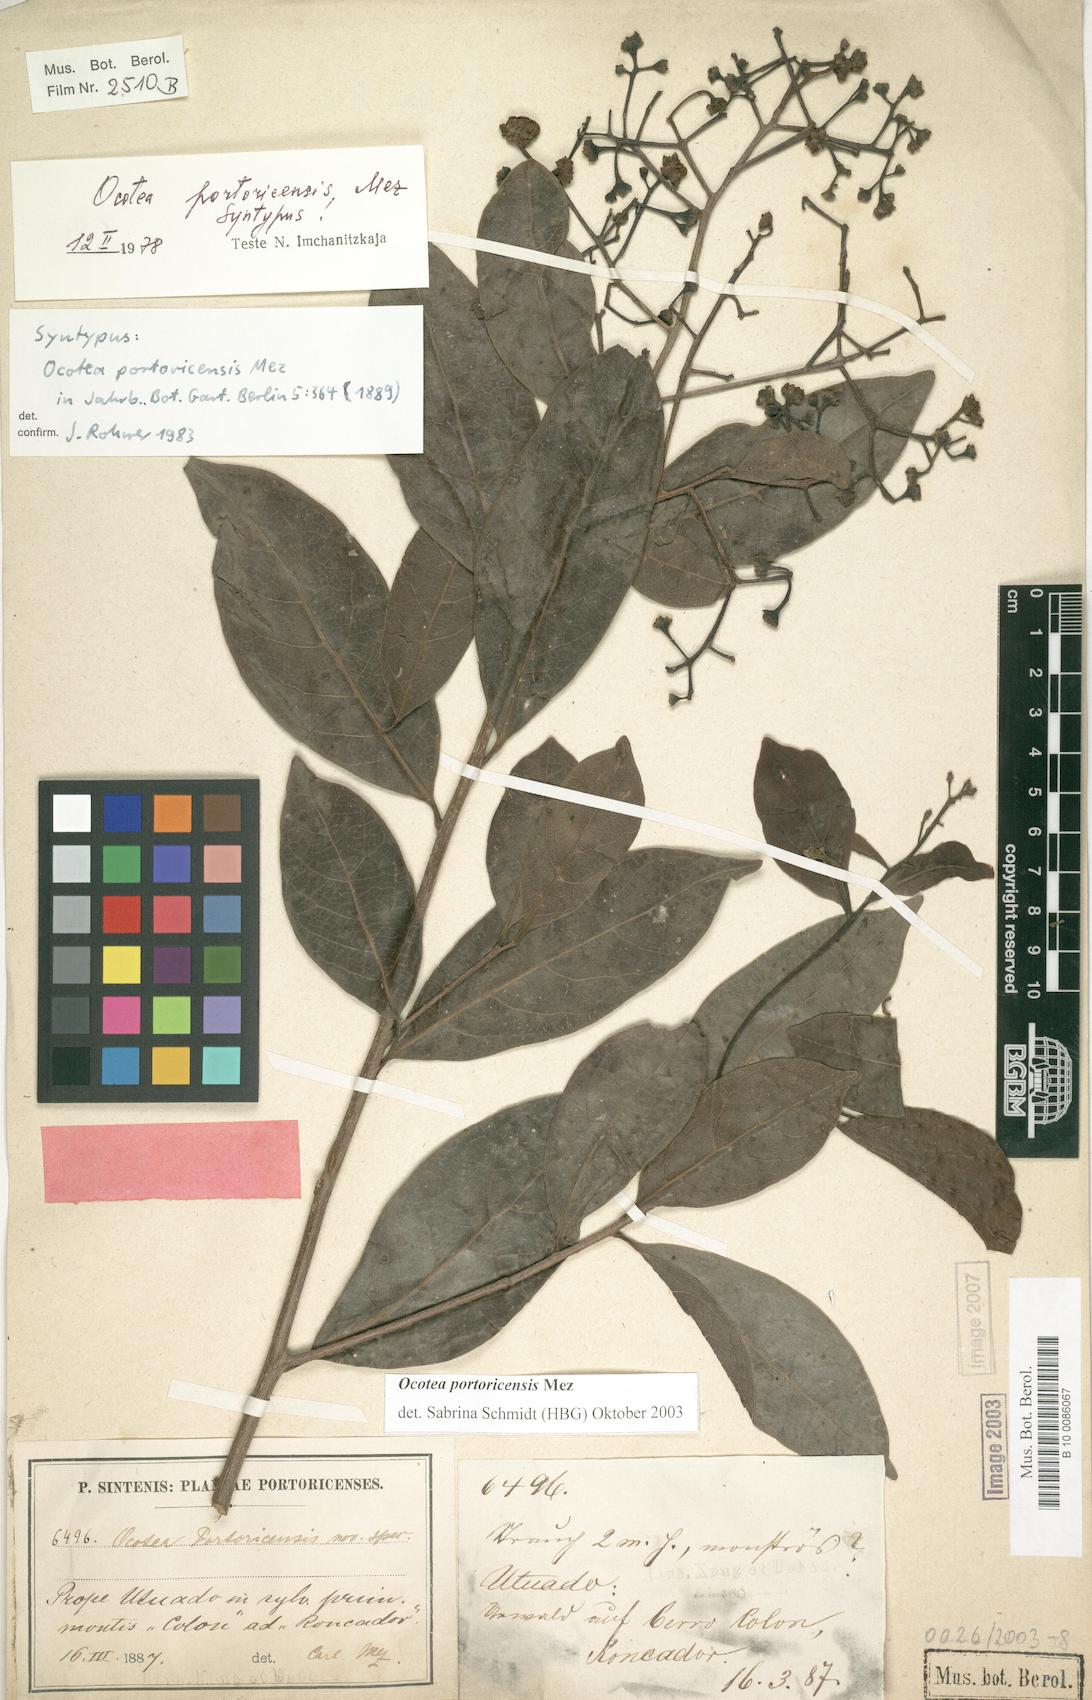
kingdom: Plantae
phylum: Tracheophyta
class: Magnoliopsida
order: Laurales
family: Lauraceae
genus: Ocotea
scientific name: Ocotea portoricensis
